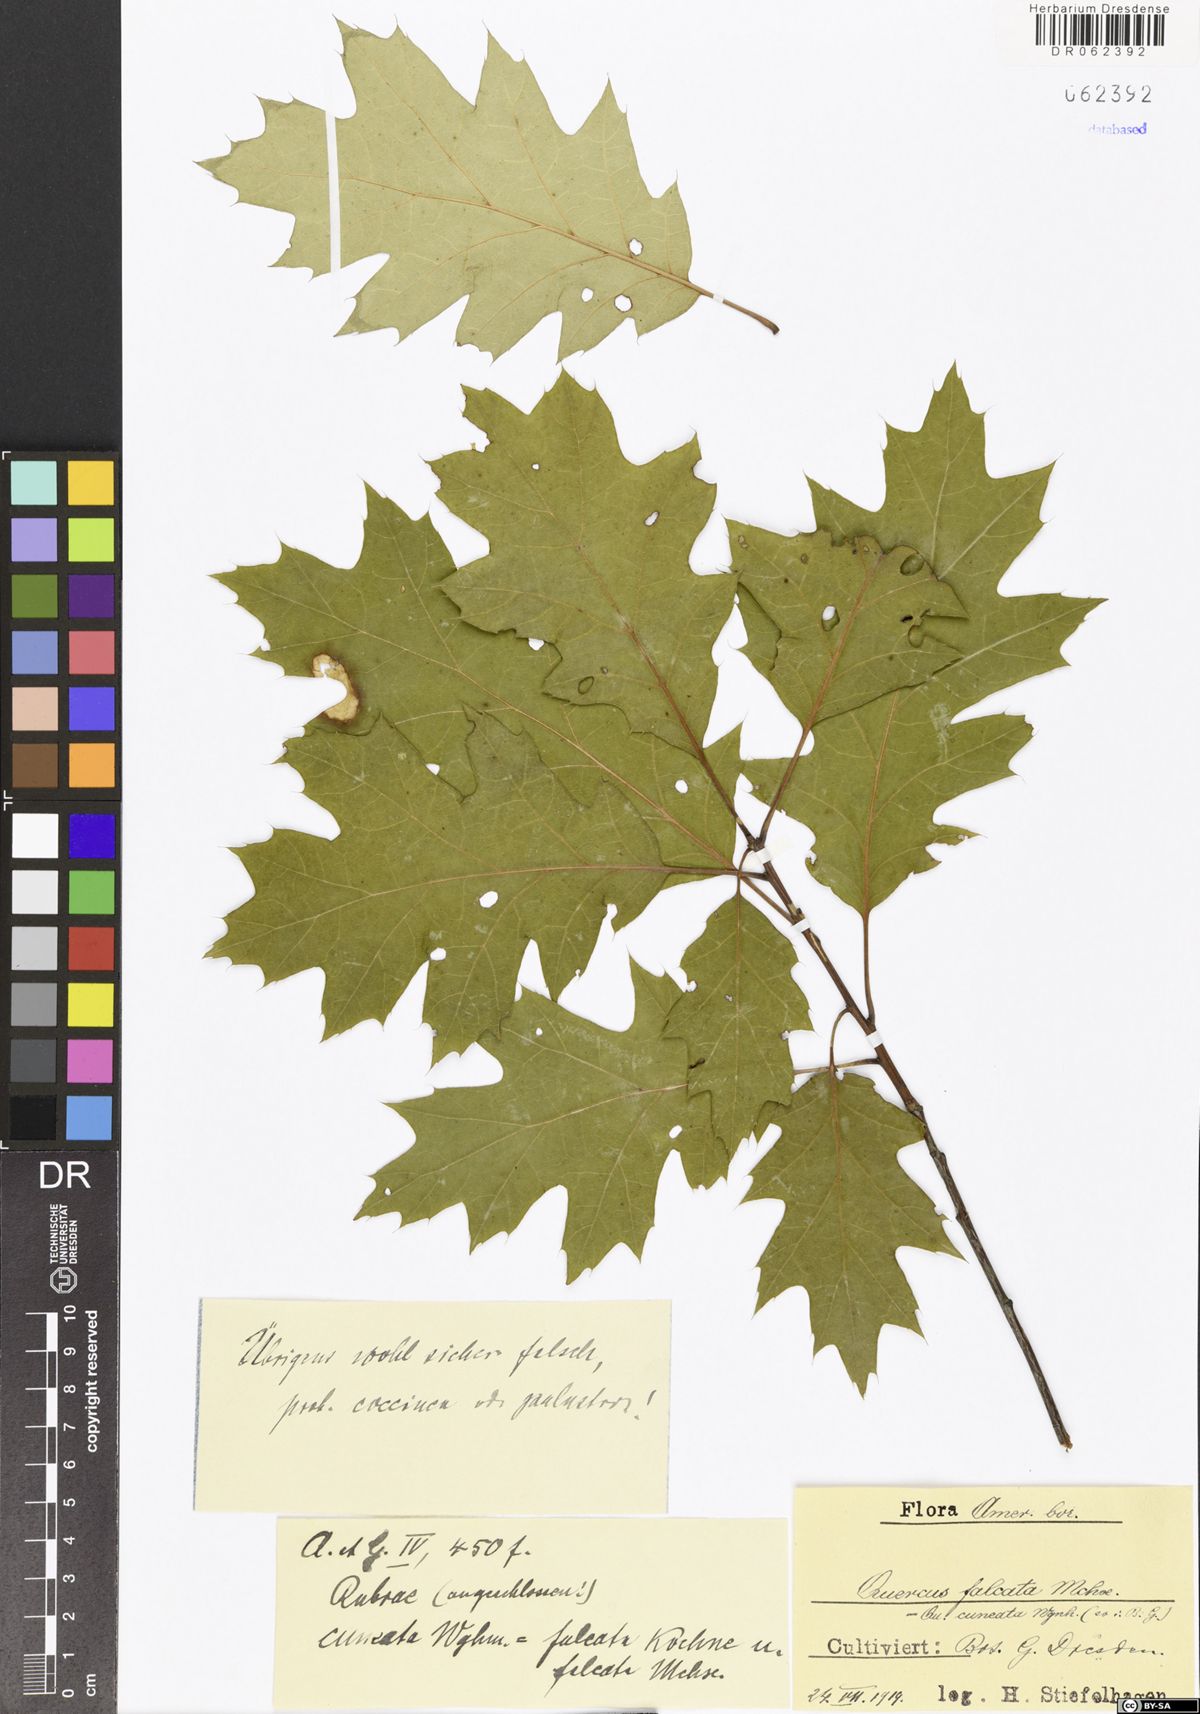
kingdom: Plantae
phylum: Tracheophyta
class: Magnoliopsida
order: Fagales
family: Fagaceae
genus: Quercus
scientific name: Quercus falcata
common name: Southern red oak
